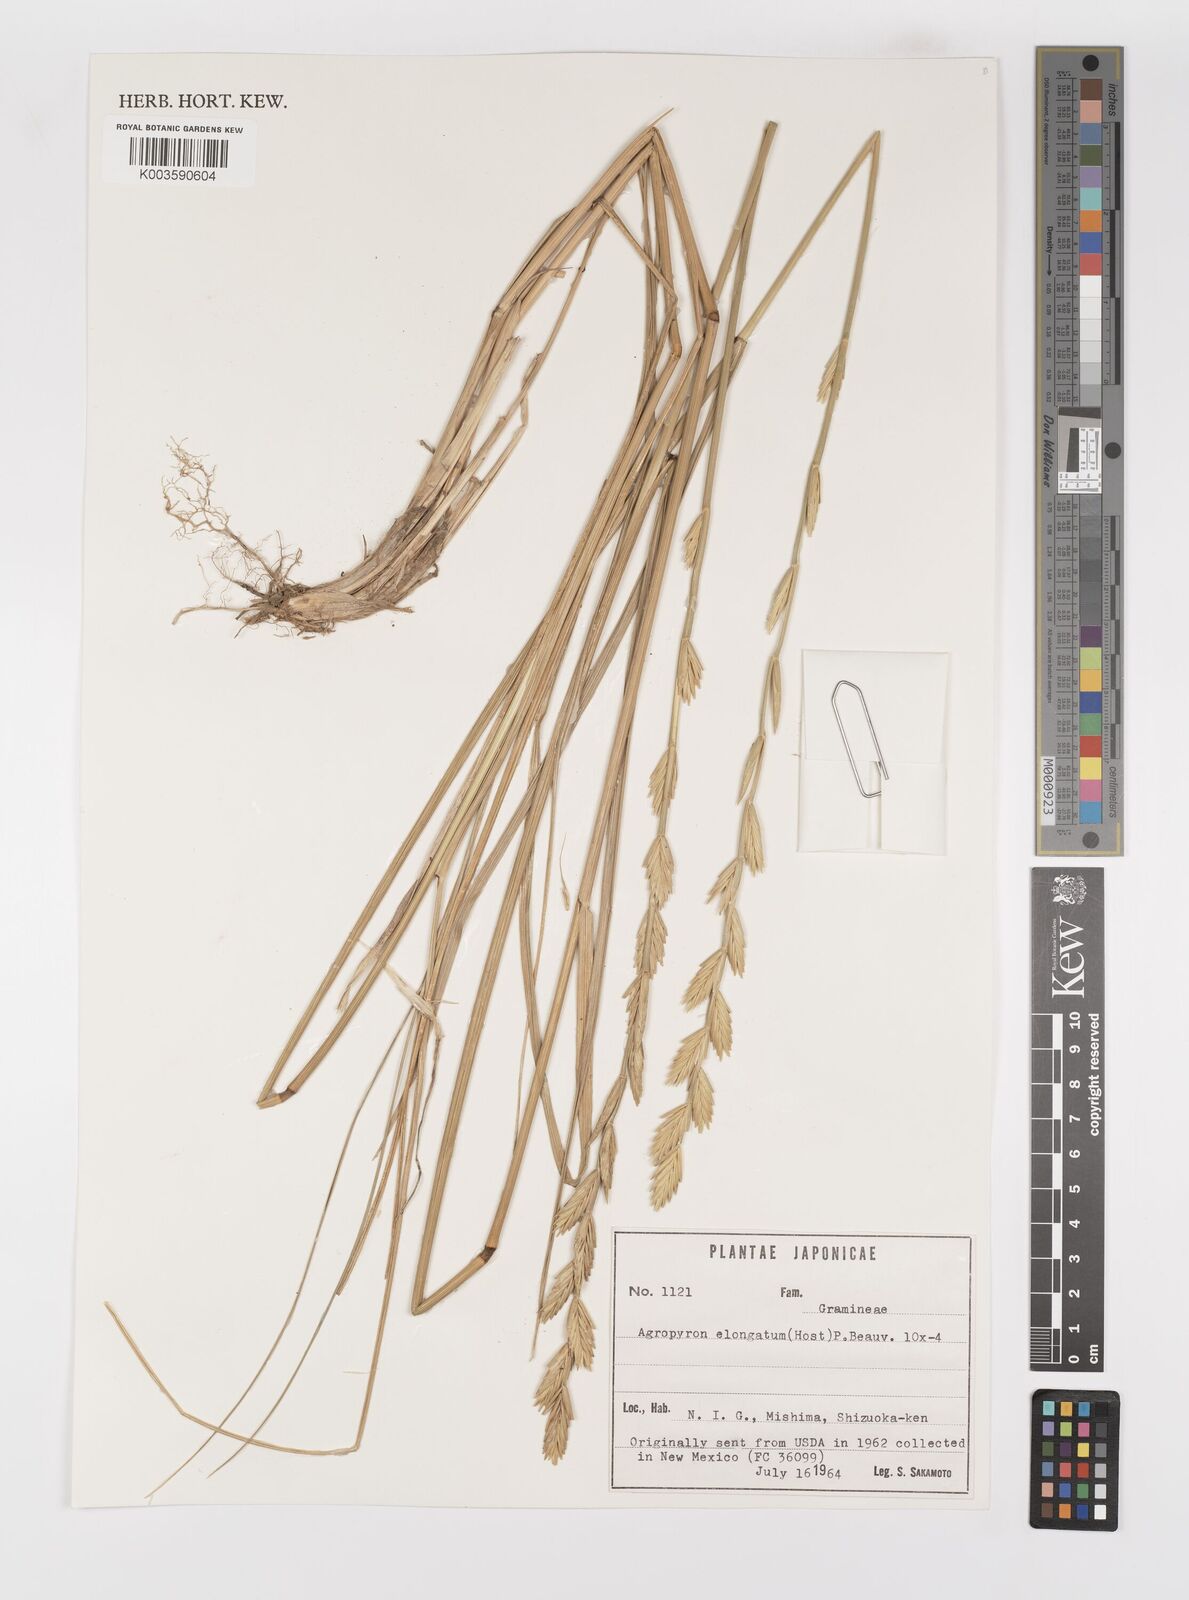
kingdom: Plantae
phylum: Tracheophyta
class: Liliopsida
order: Poales
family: Poaceae
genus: Thinopyrum
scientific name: Thinopyrum elongatum
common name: Tall wheatgrass
